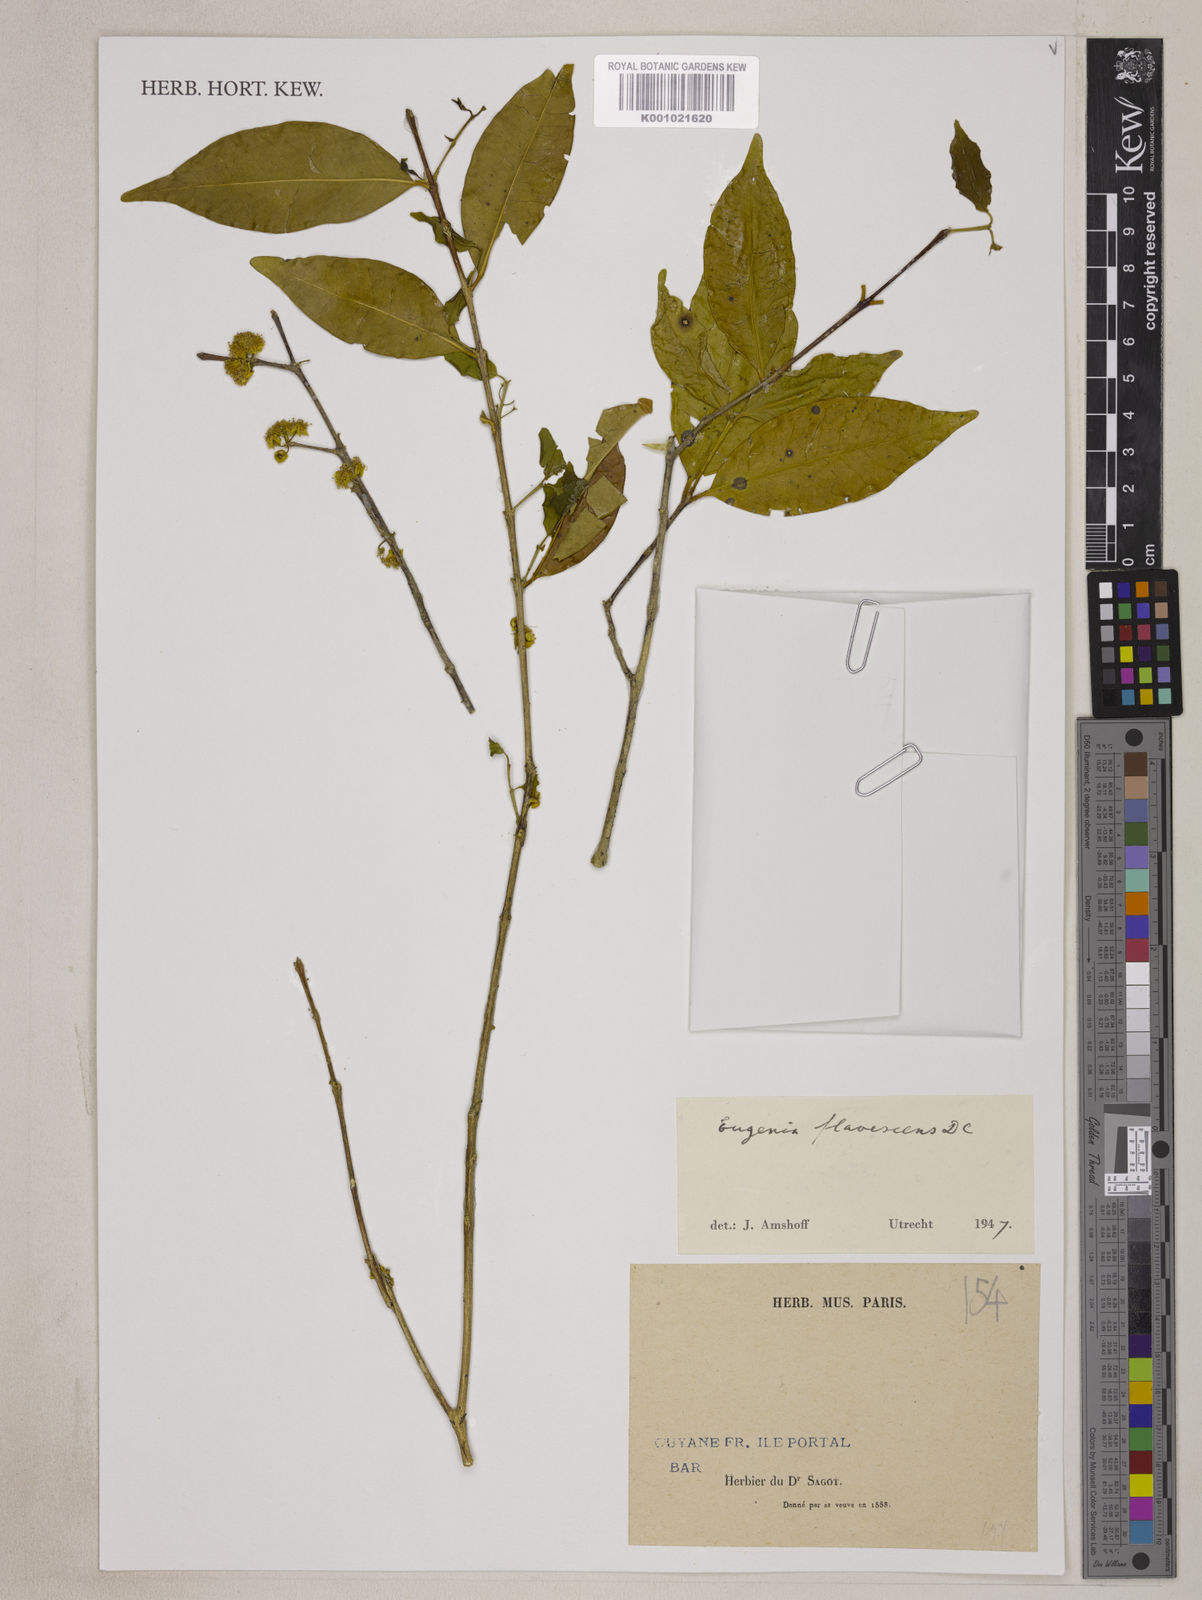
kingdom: Plantae
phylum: Tracheophyta
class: Magnoliopsida
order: Myrtales
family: Myrtaceae
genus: Eugenia
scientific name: Eugenia flavescens
